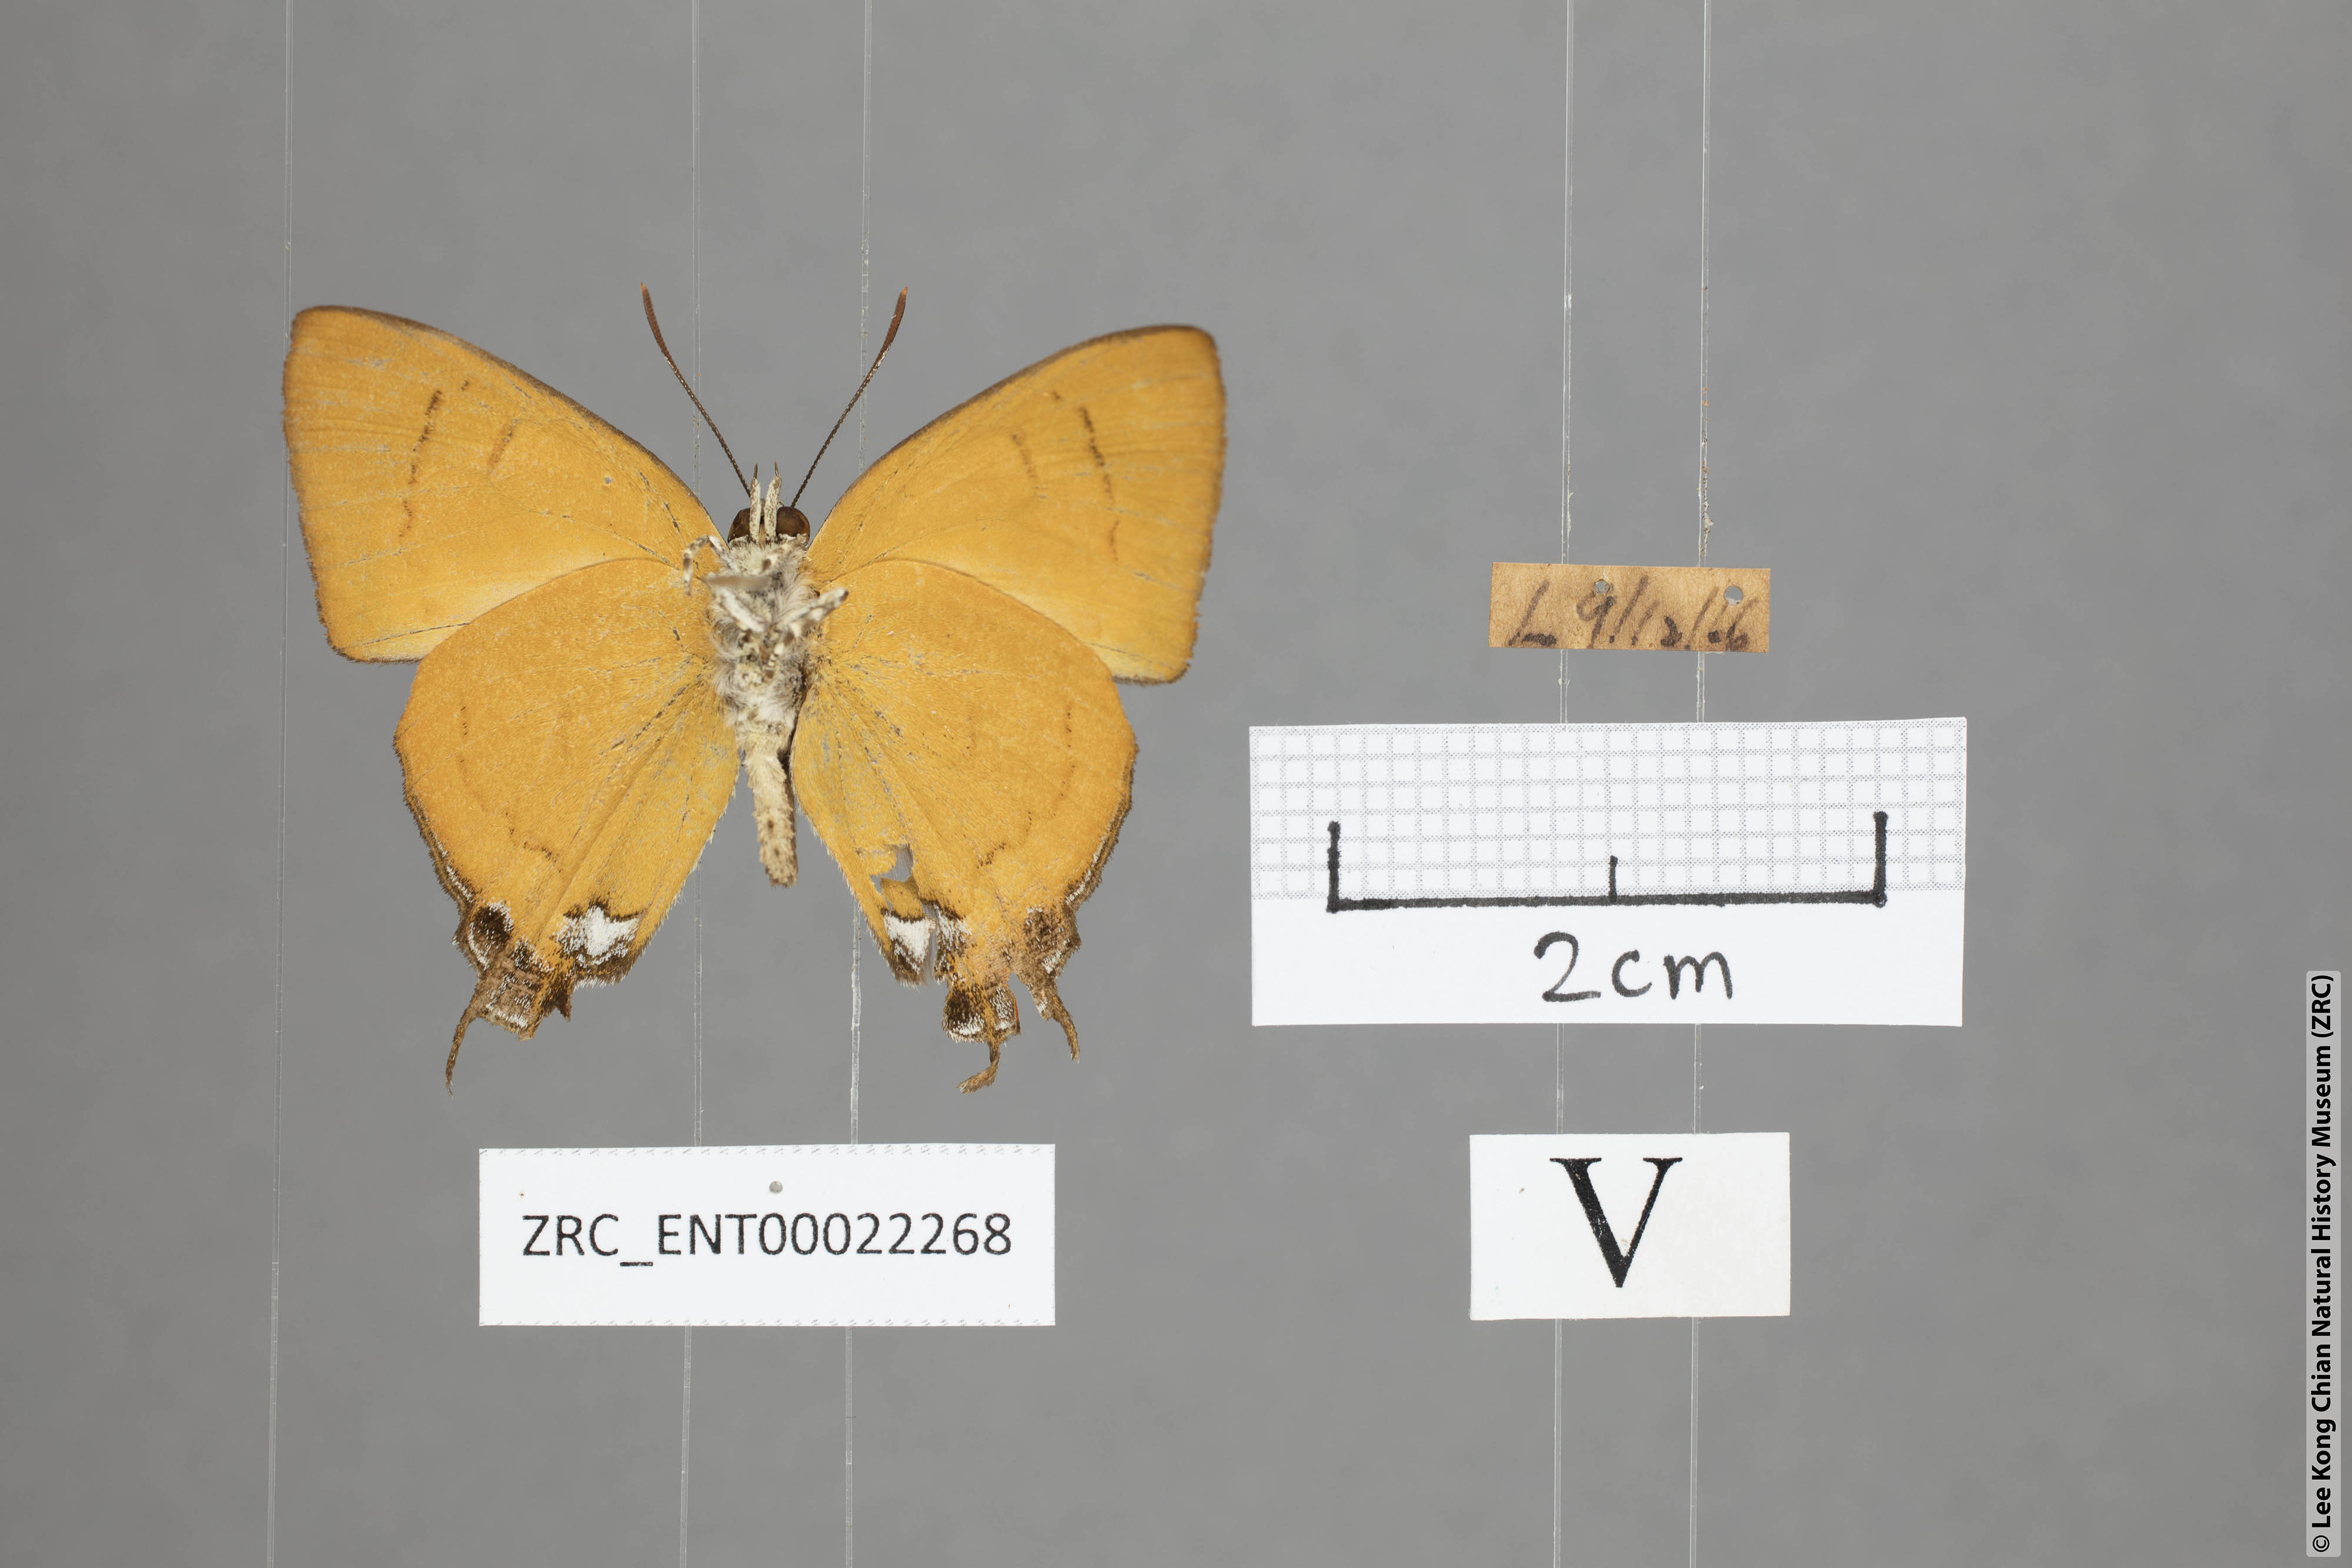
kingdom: Animalia
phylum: Arthropoda
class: Insecta
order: Lepidoptera
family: Lycaenidae
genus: Thamala
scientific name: Thamala marciana
